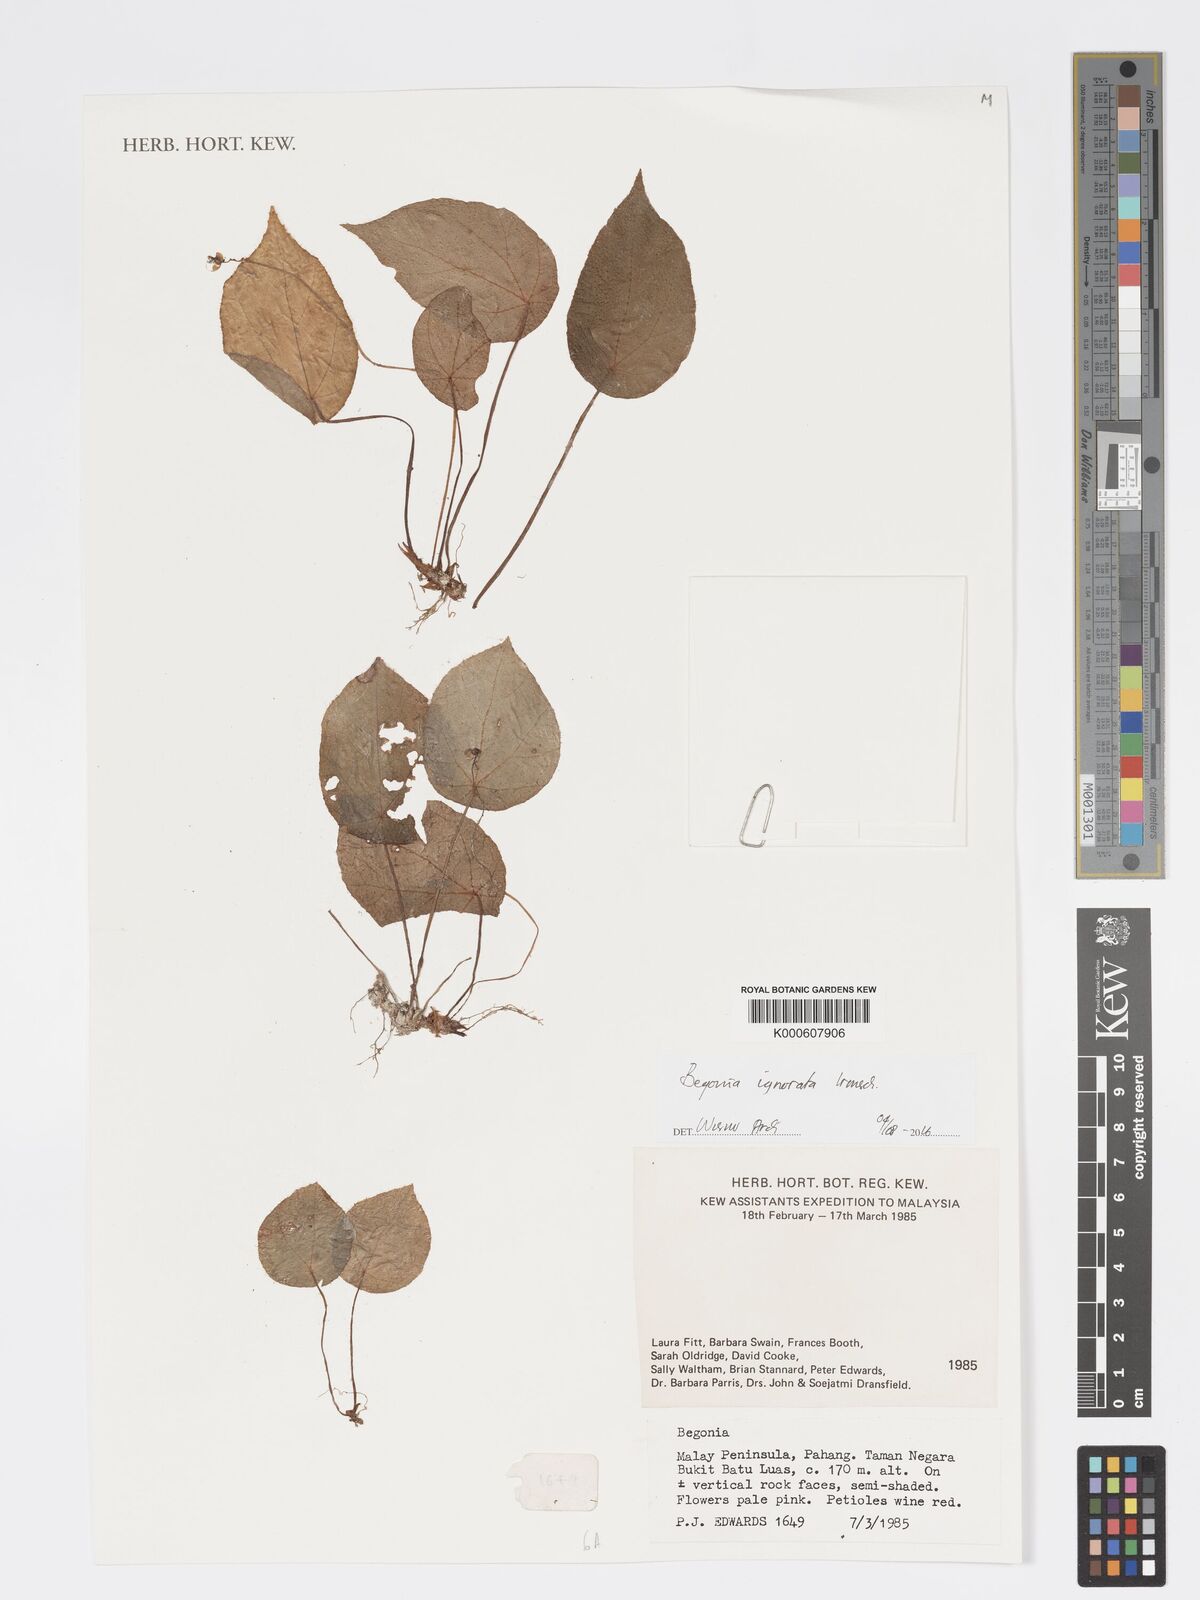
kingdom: Plantae
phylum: Tracheophyta
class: Magnoliopsida
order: Cucurbitales
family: Begoniaceae
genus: Begonia
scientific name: Begonia ignorata
